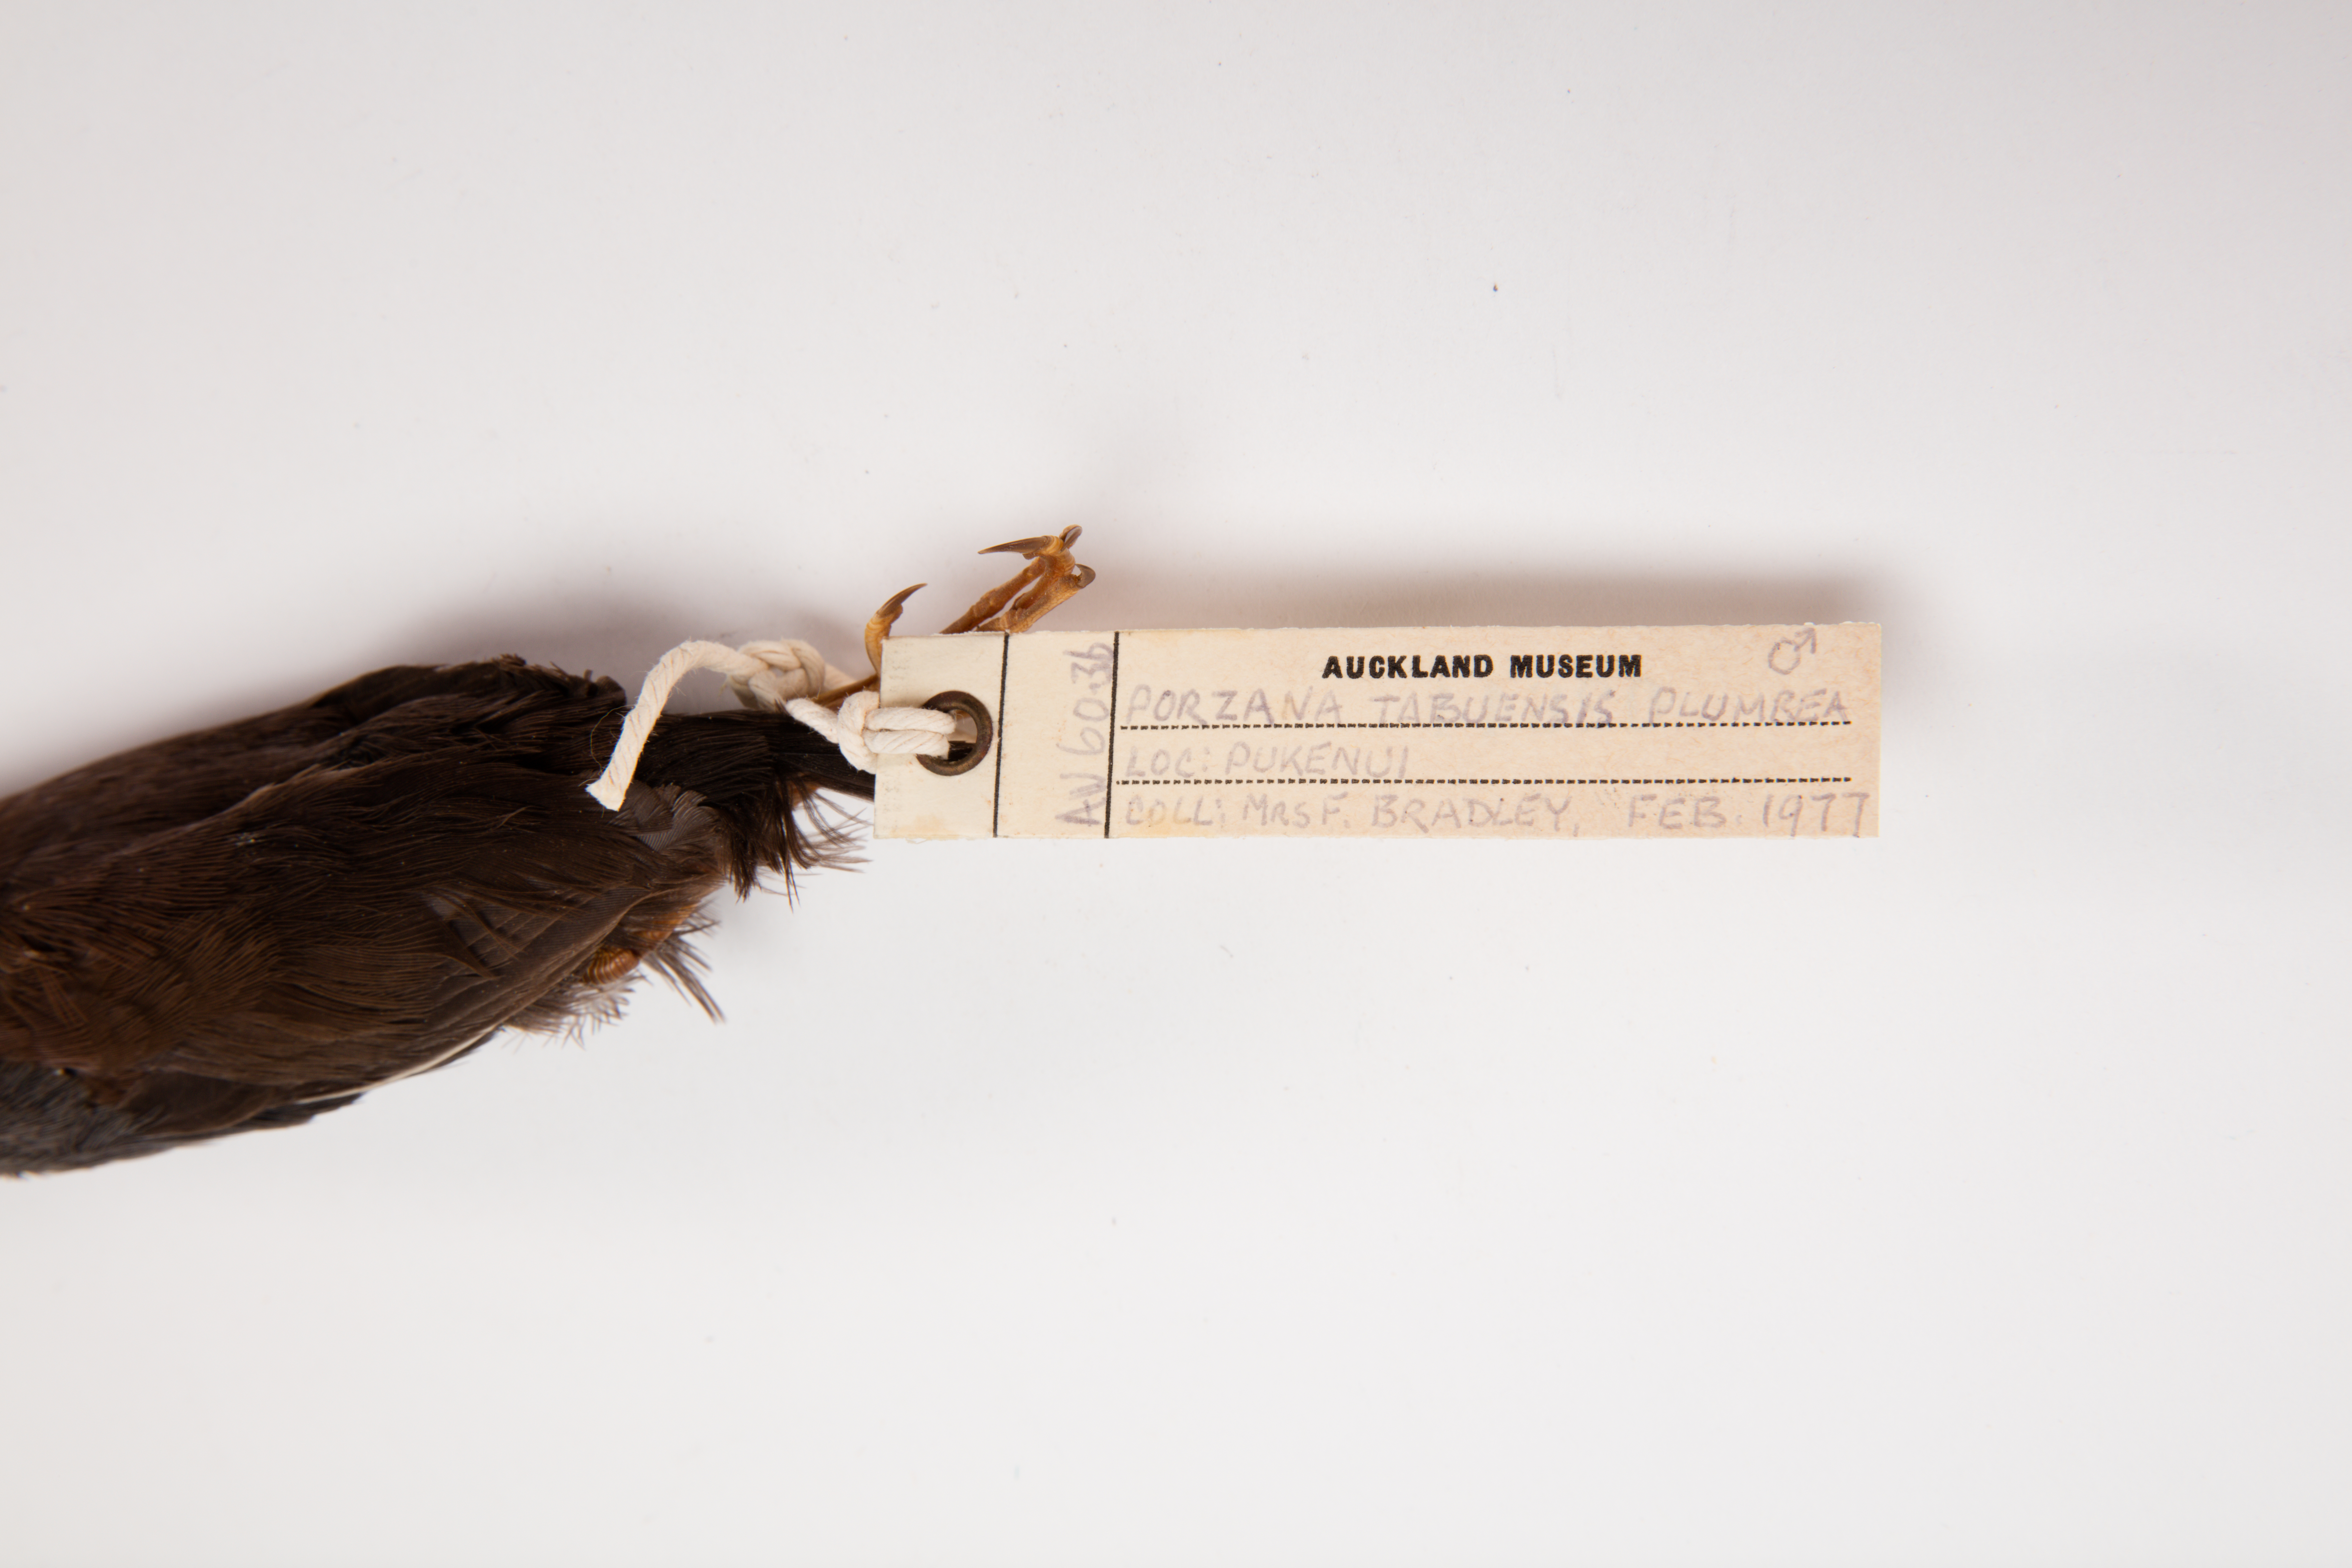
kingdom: Animalia
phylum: Chordata
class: Aves
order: Gruiformes
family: Rallidae
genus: Porzana
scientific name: Porzana tabuensis
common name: Spotless crake
